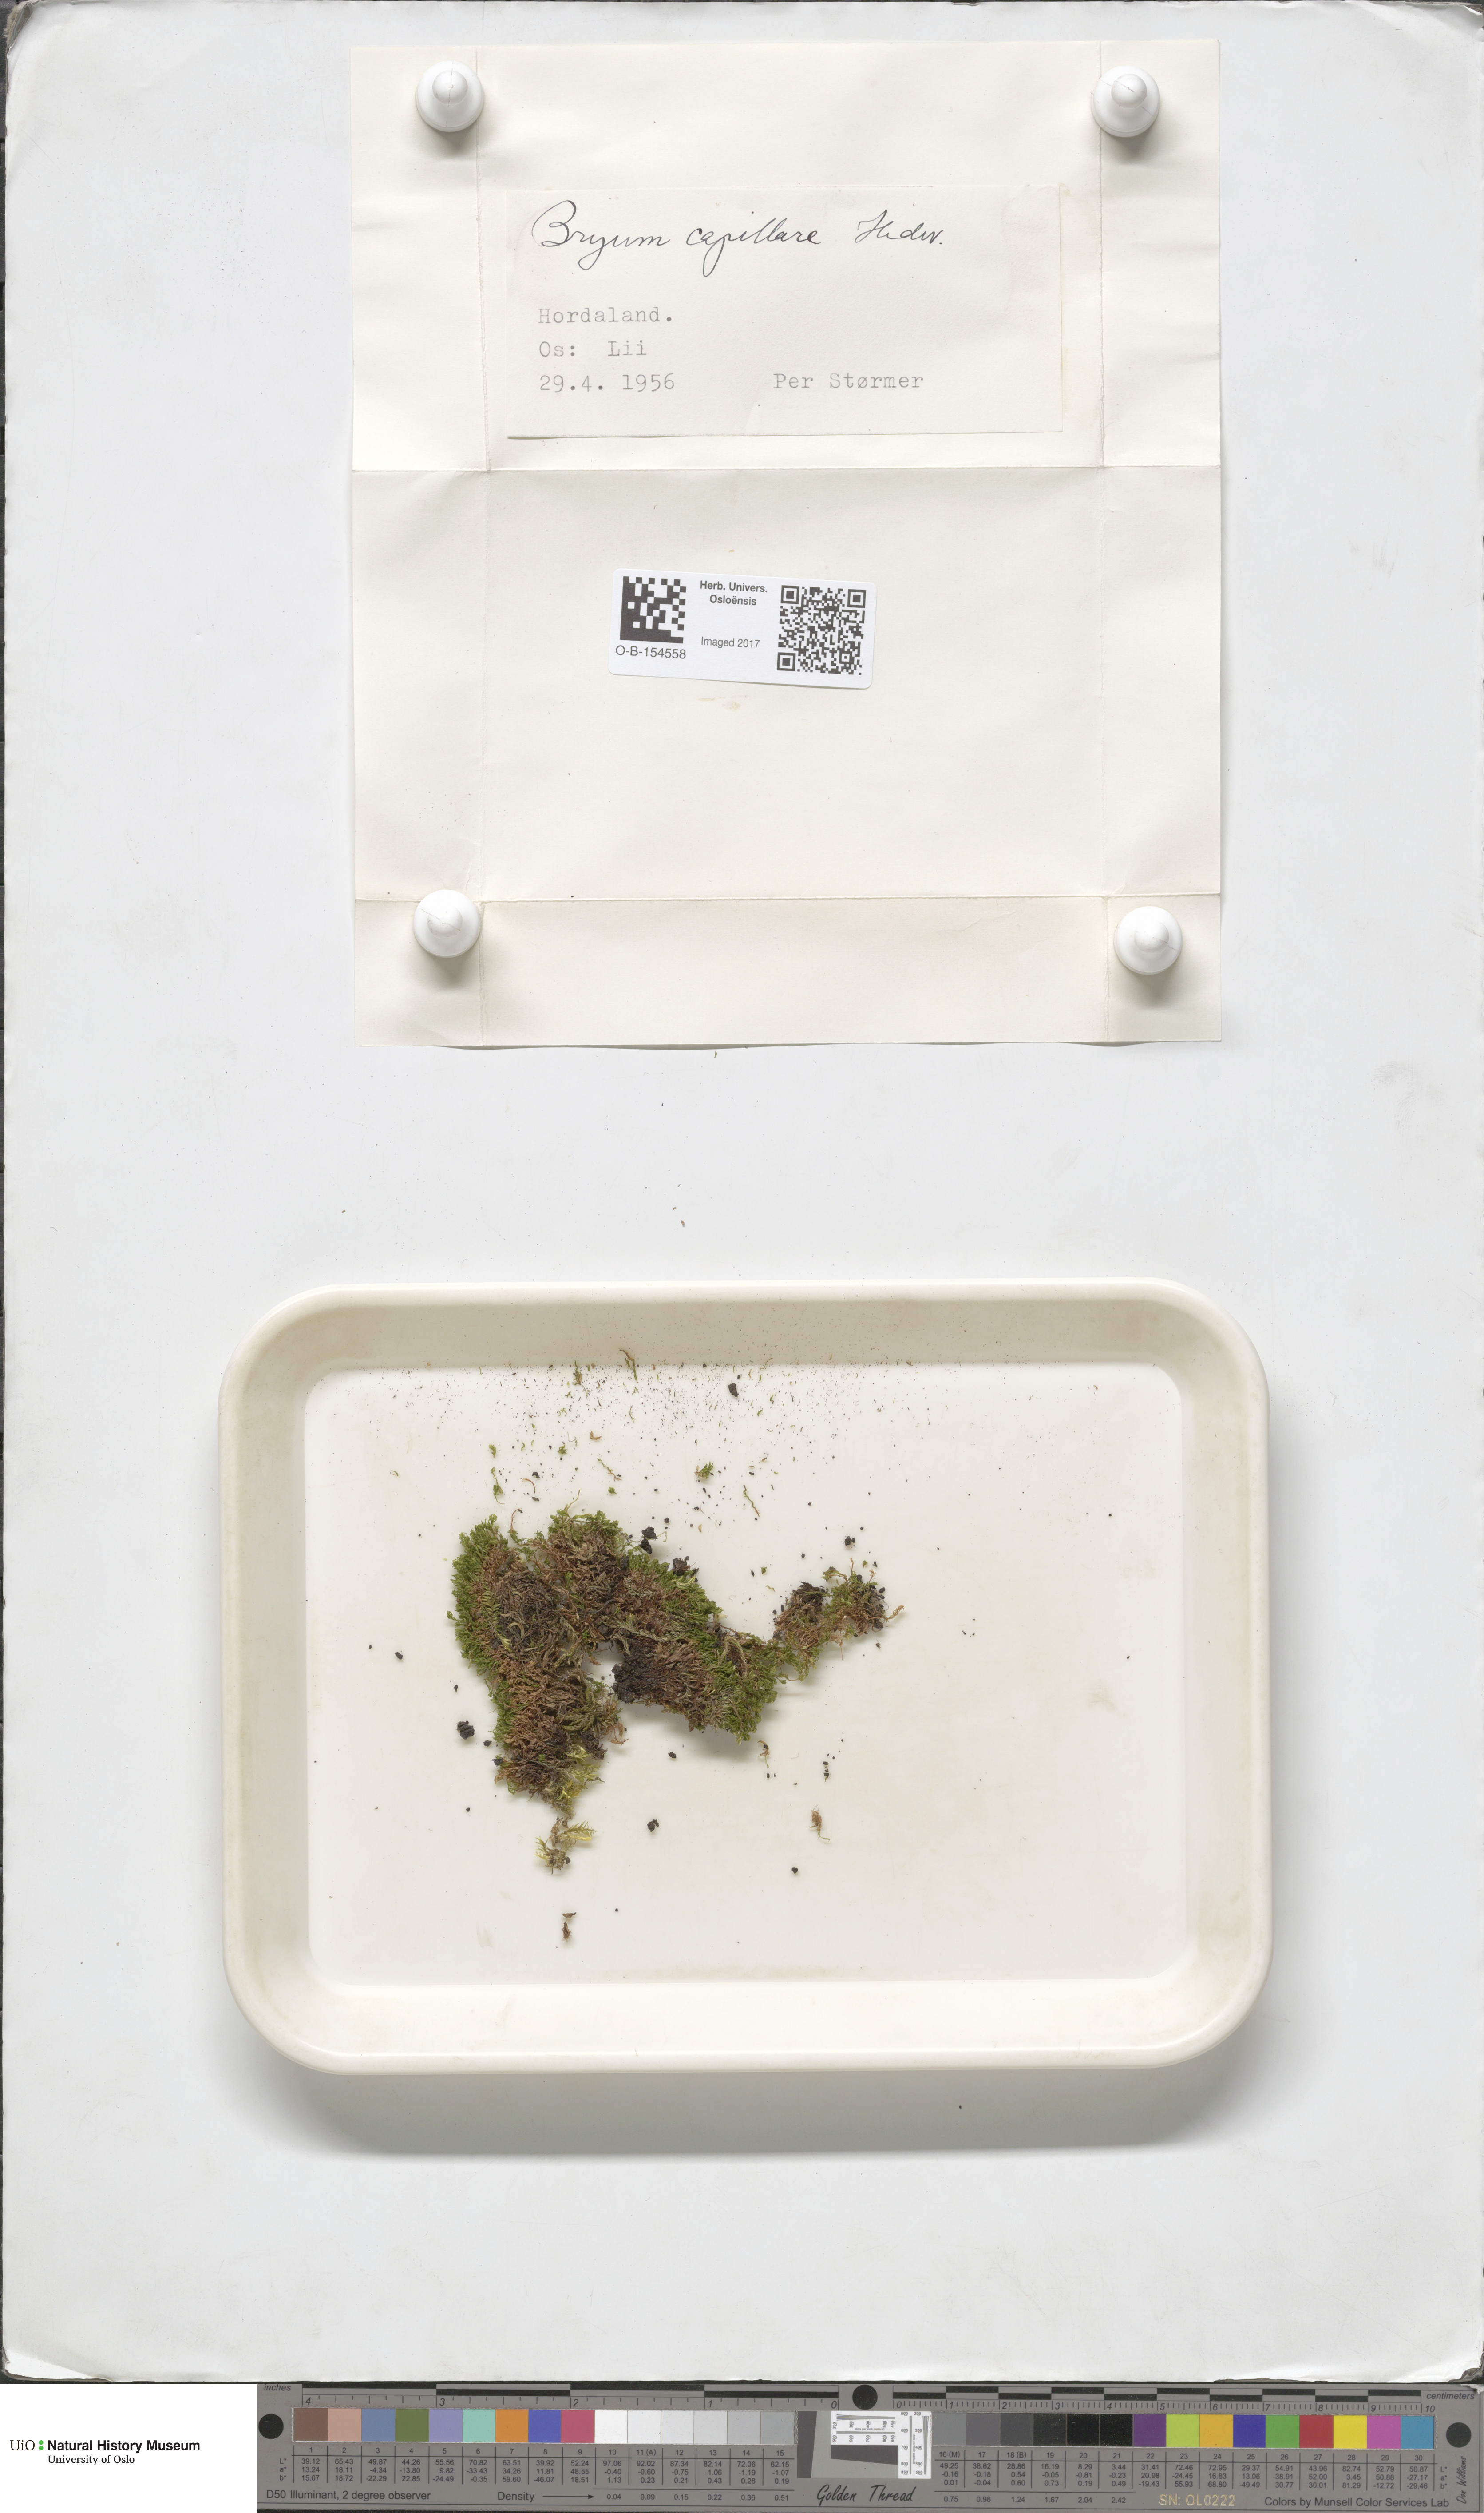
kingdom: Plantae
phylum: Bryophyta
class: Bryopsida
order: Bryales
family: Bryaceae
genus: Rosulabryum
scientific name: Rosulabryum capillare
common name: Capillary thread-moss
